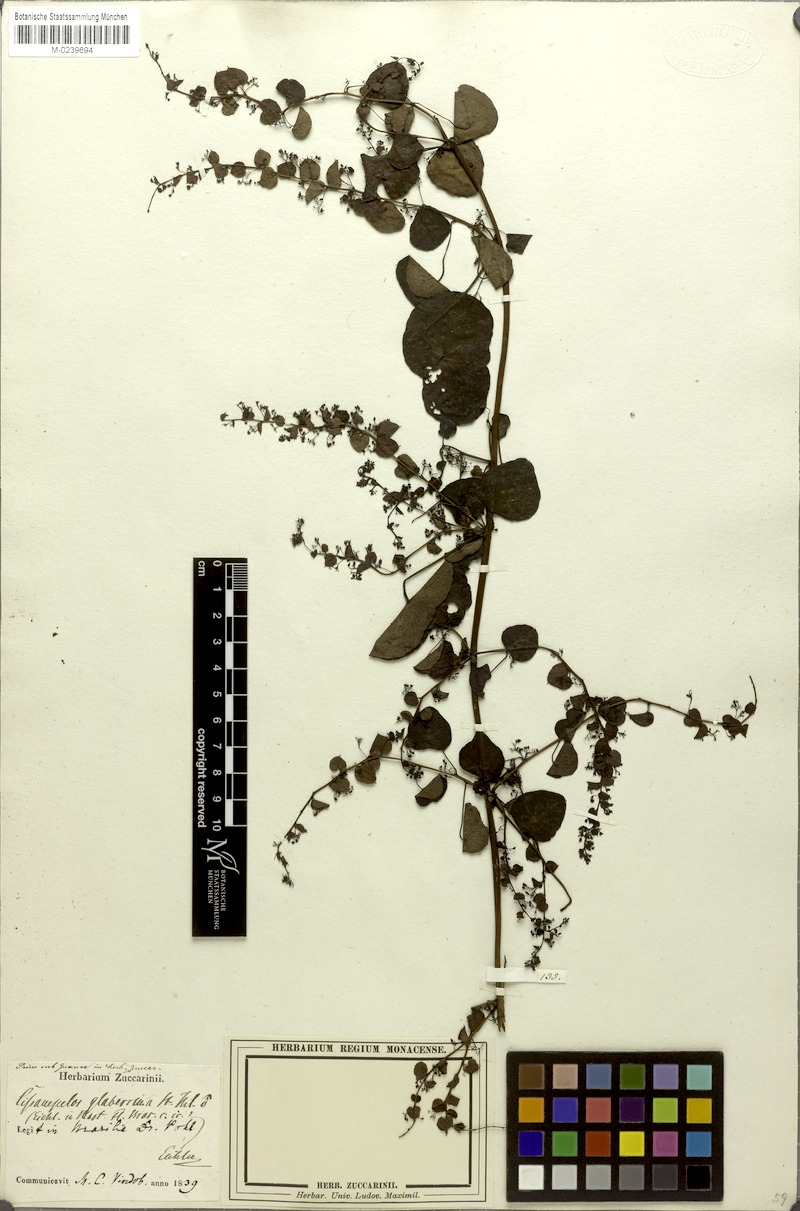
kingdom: Plantae
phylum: Tracheophyta
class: Magnoliopsida
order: Ranunculales
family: Menispermaceae
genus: Cissampelos
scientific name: Cissampelos glaberrima
